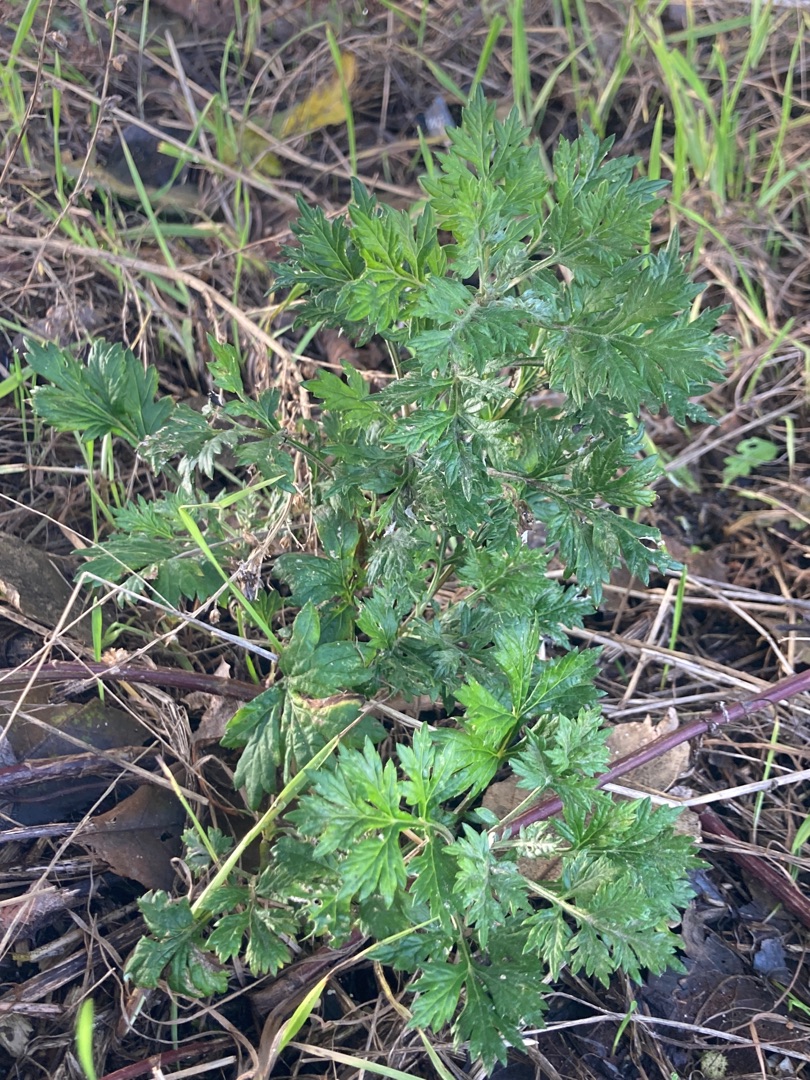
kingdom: Plantae
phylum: Tracheophyta
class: Magnoliopsida
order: Asterales
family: Asteraceae
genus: Artemisia
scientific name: Artemisia vulgaris
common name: Grå-bynke
